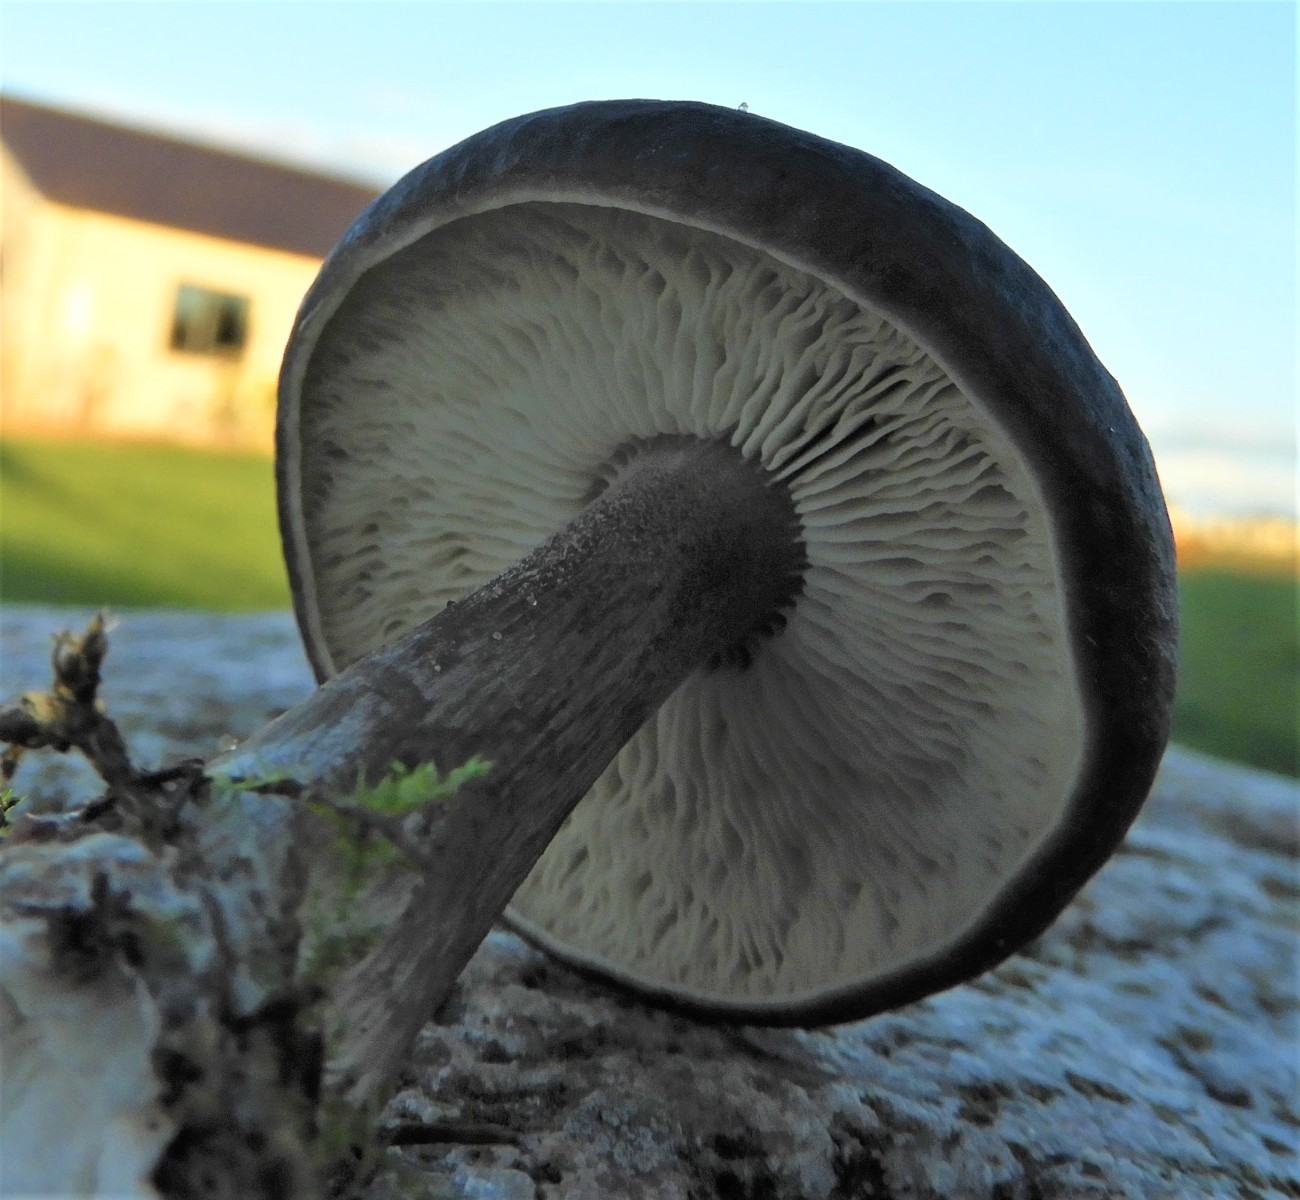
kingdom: Fungi
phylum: Basidiomycota
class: Agaricomycetes
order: Agaricales
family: Tricholomataceae
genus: Melanoleuca
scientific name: Melanoleuca
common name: munkehat
